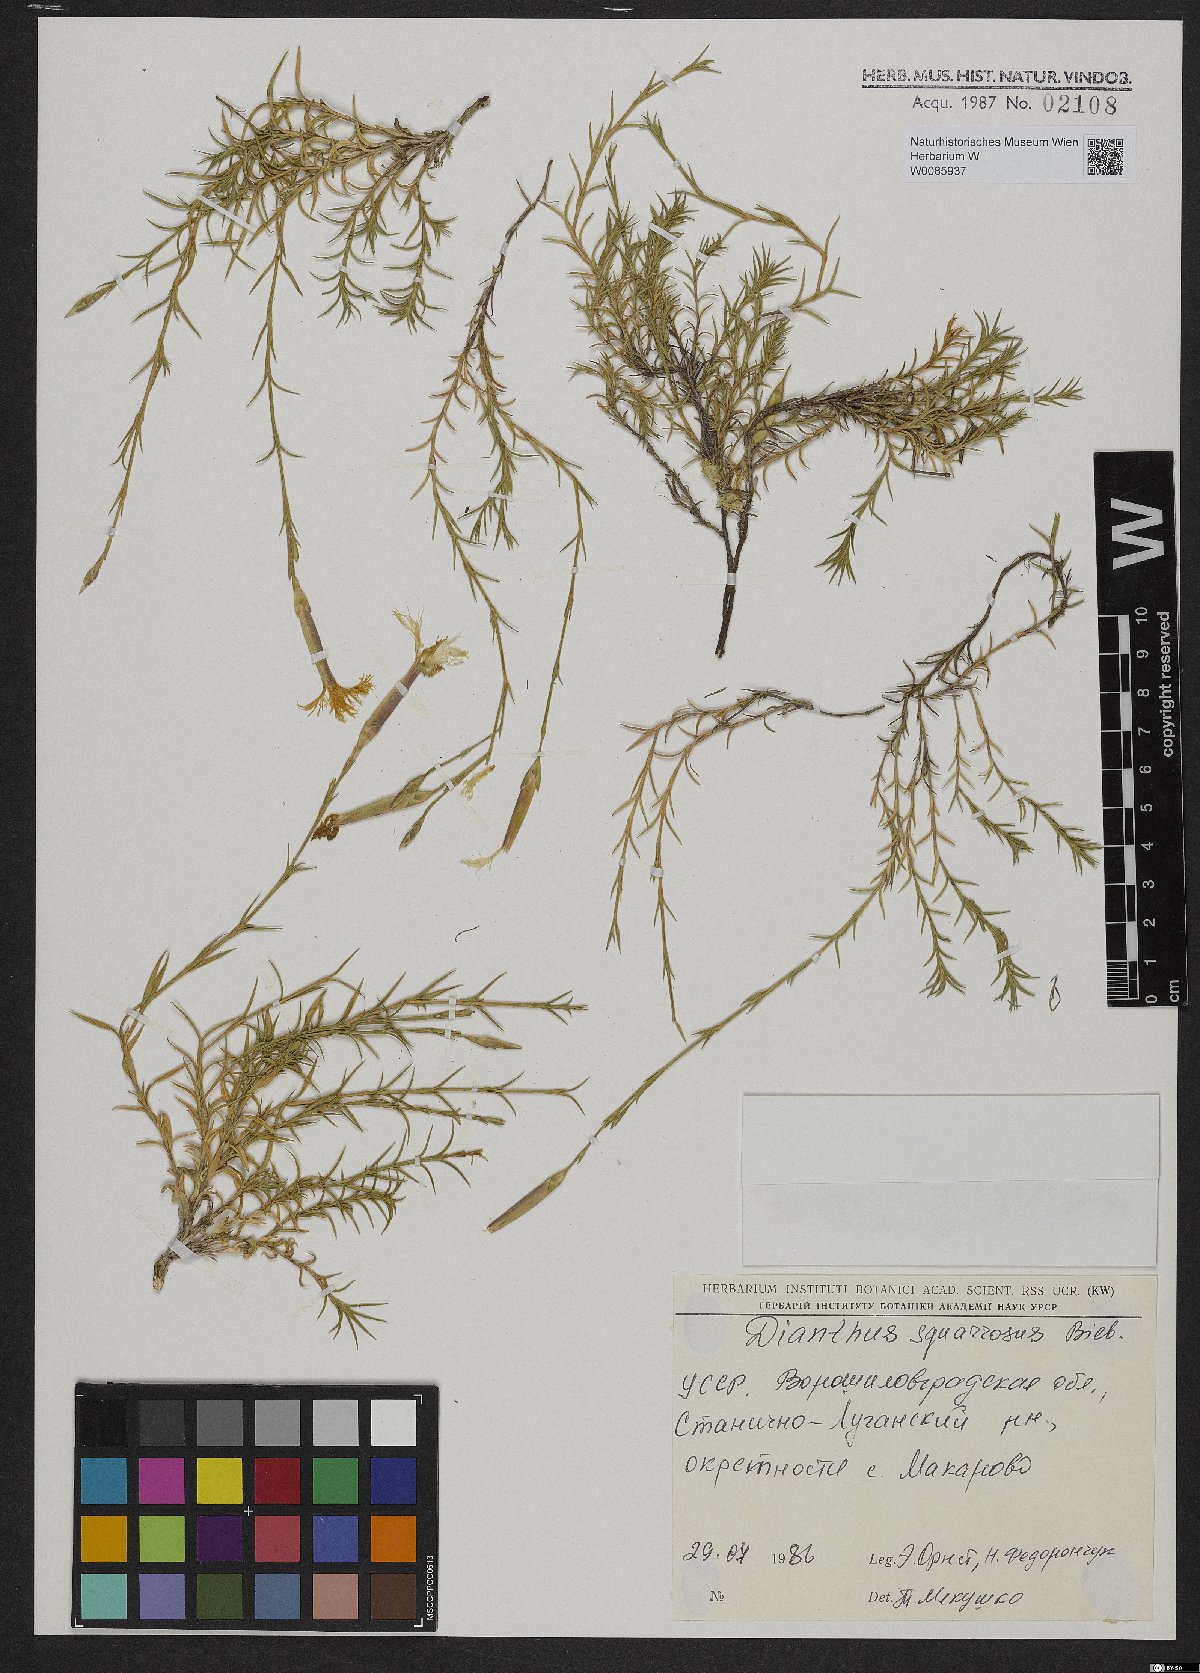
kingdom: Plantae
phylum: Tracheophyta
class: Magnoliopsida
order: Caryophyllales
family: Caryophyllaceae
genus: Dianthus
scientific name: Dianthus squarrosus
